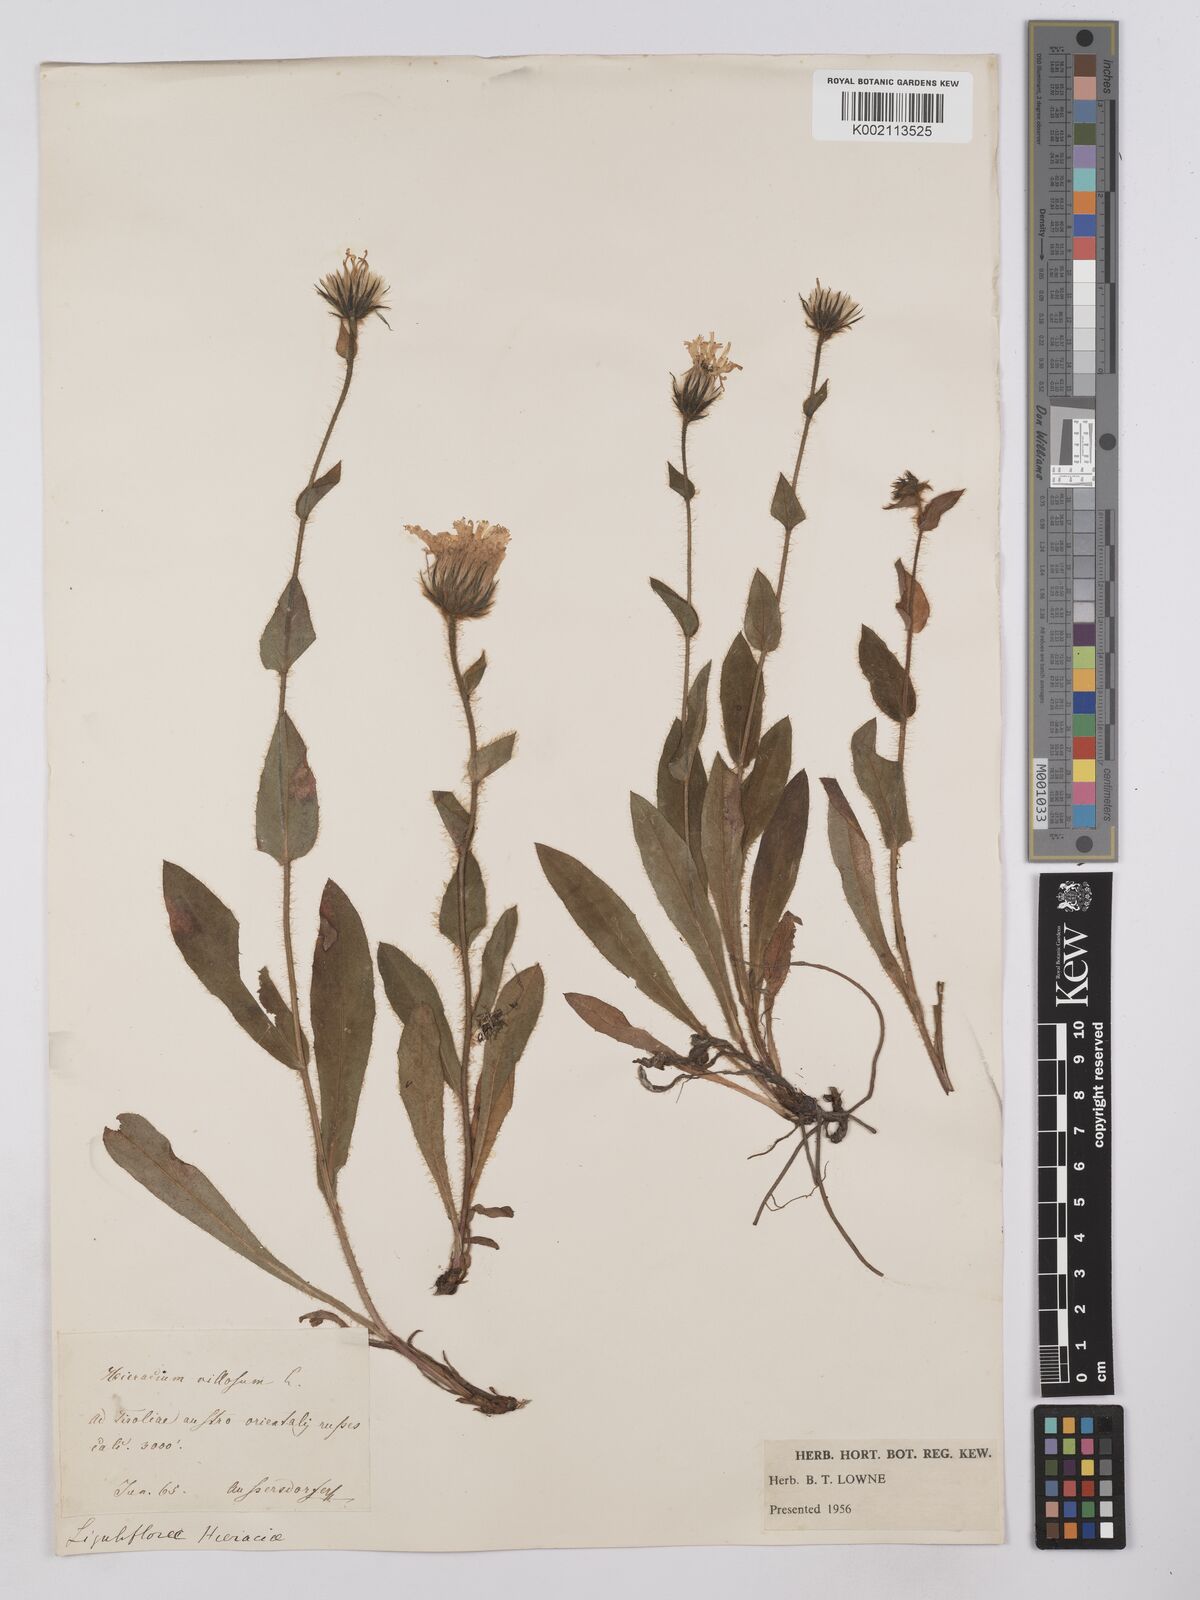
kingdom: Plantae
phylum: Tracheophyta
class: Magnoliopsida
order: Asterales
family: Asteraceae
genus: Hieracium
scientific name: Hieracium
